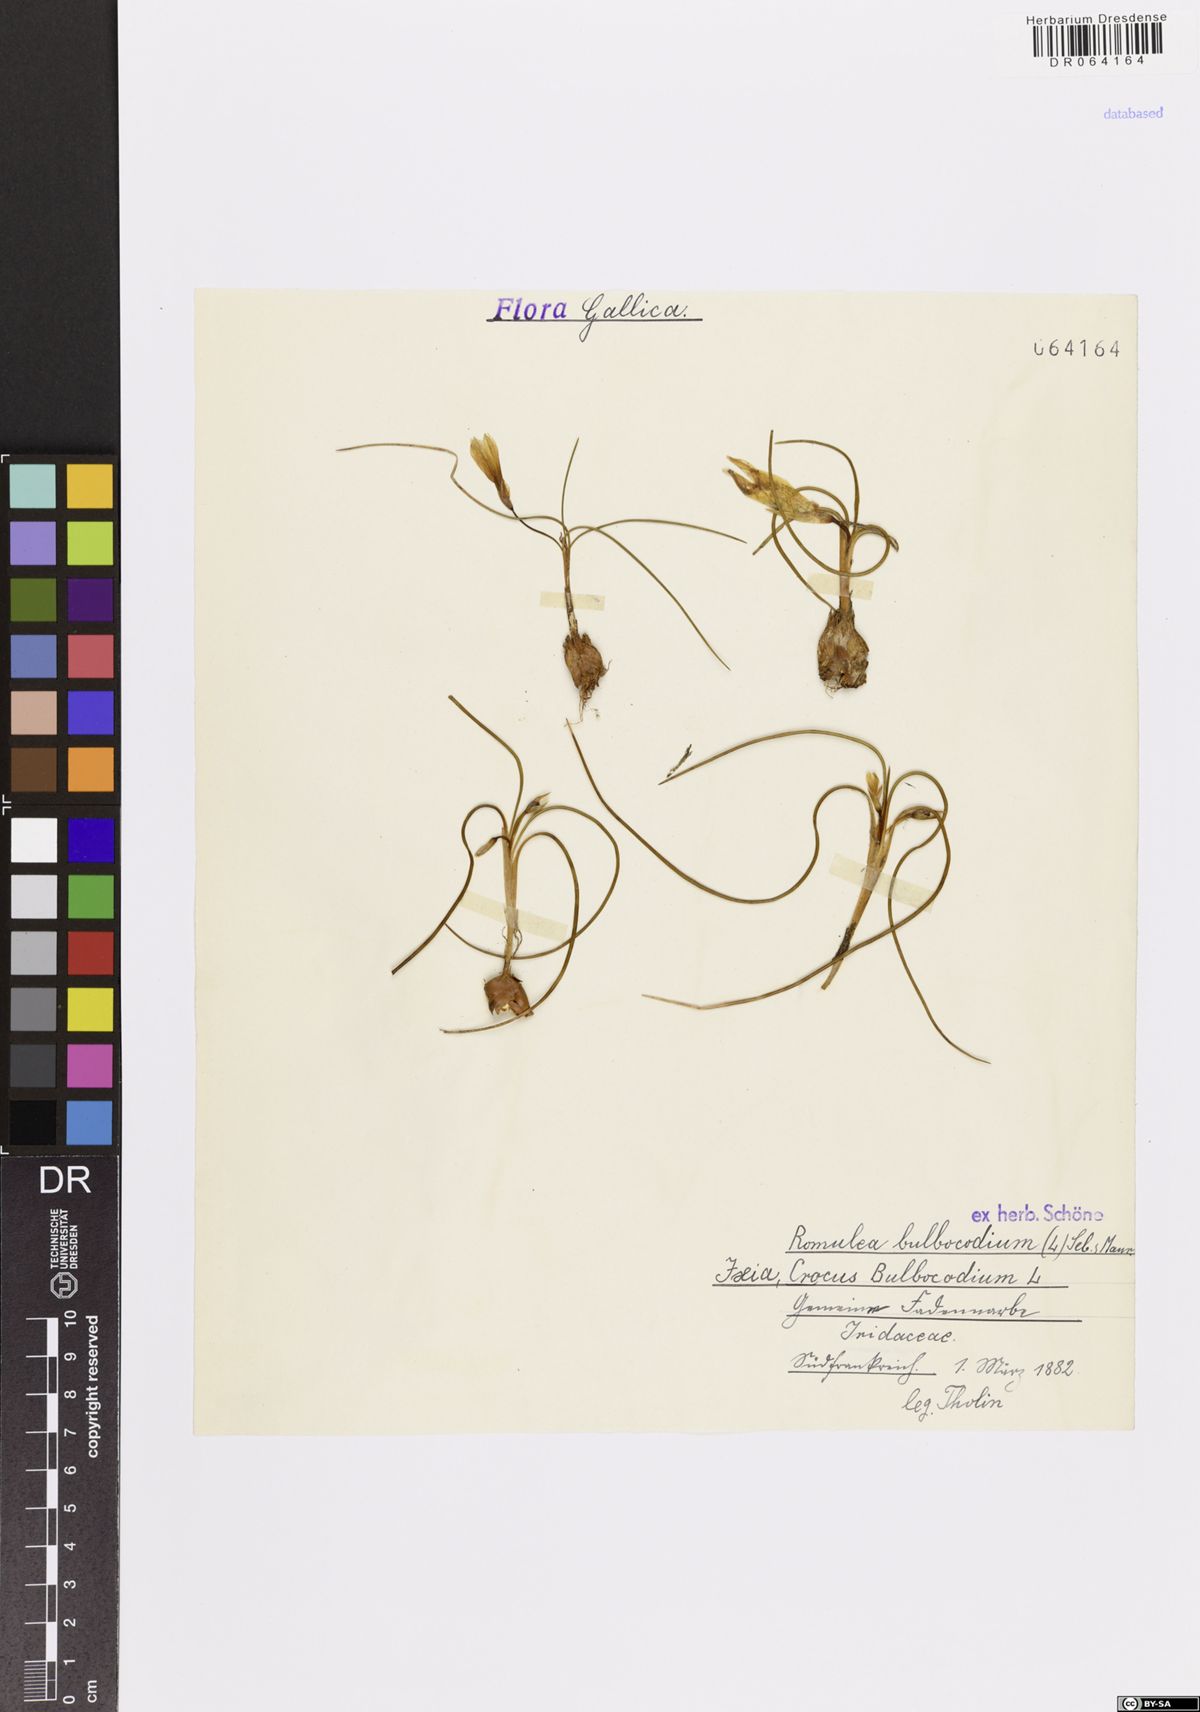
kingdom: Plantae
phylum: Tracheophyta
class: Liliopsida
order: Asparagales
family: Iridaceae
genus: Romulea
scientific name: Romulea bulbocodium
